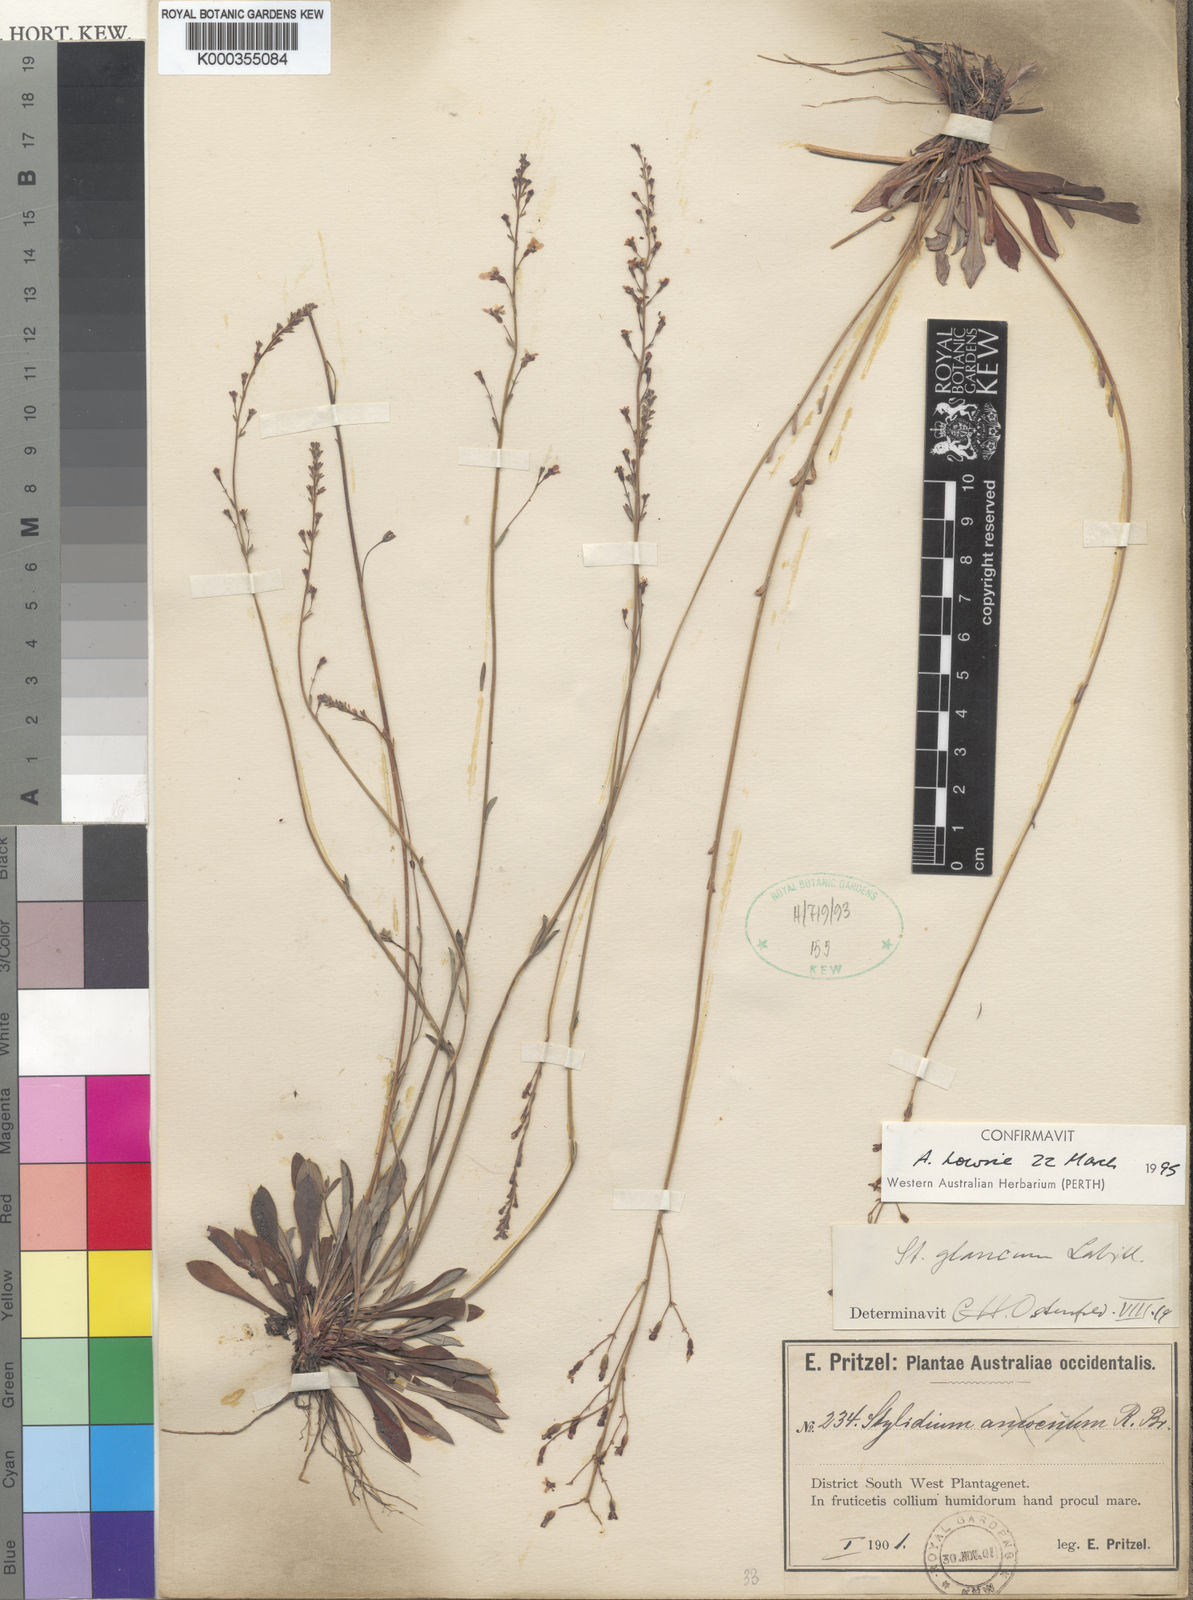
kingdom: Plantae
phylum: Tracheophyta
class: Magnoliopsida
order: Asterales
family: Stylidiaceae
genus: Stylidium
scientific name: Stylidium glaucum
